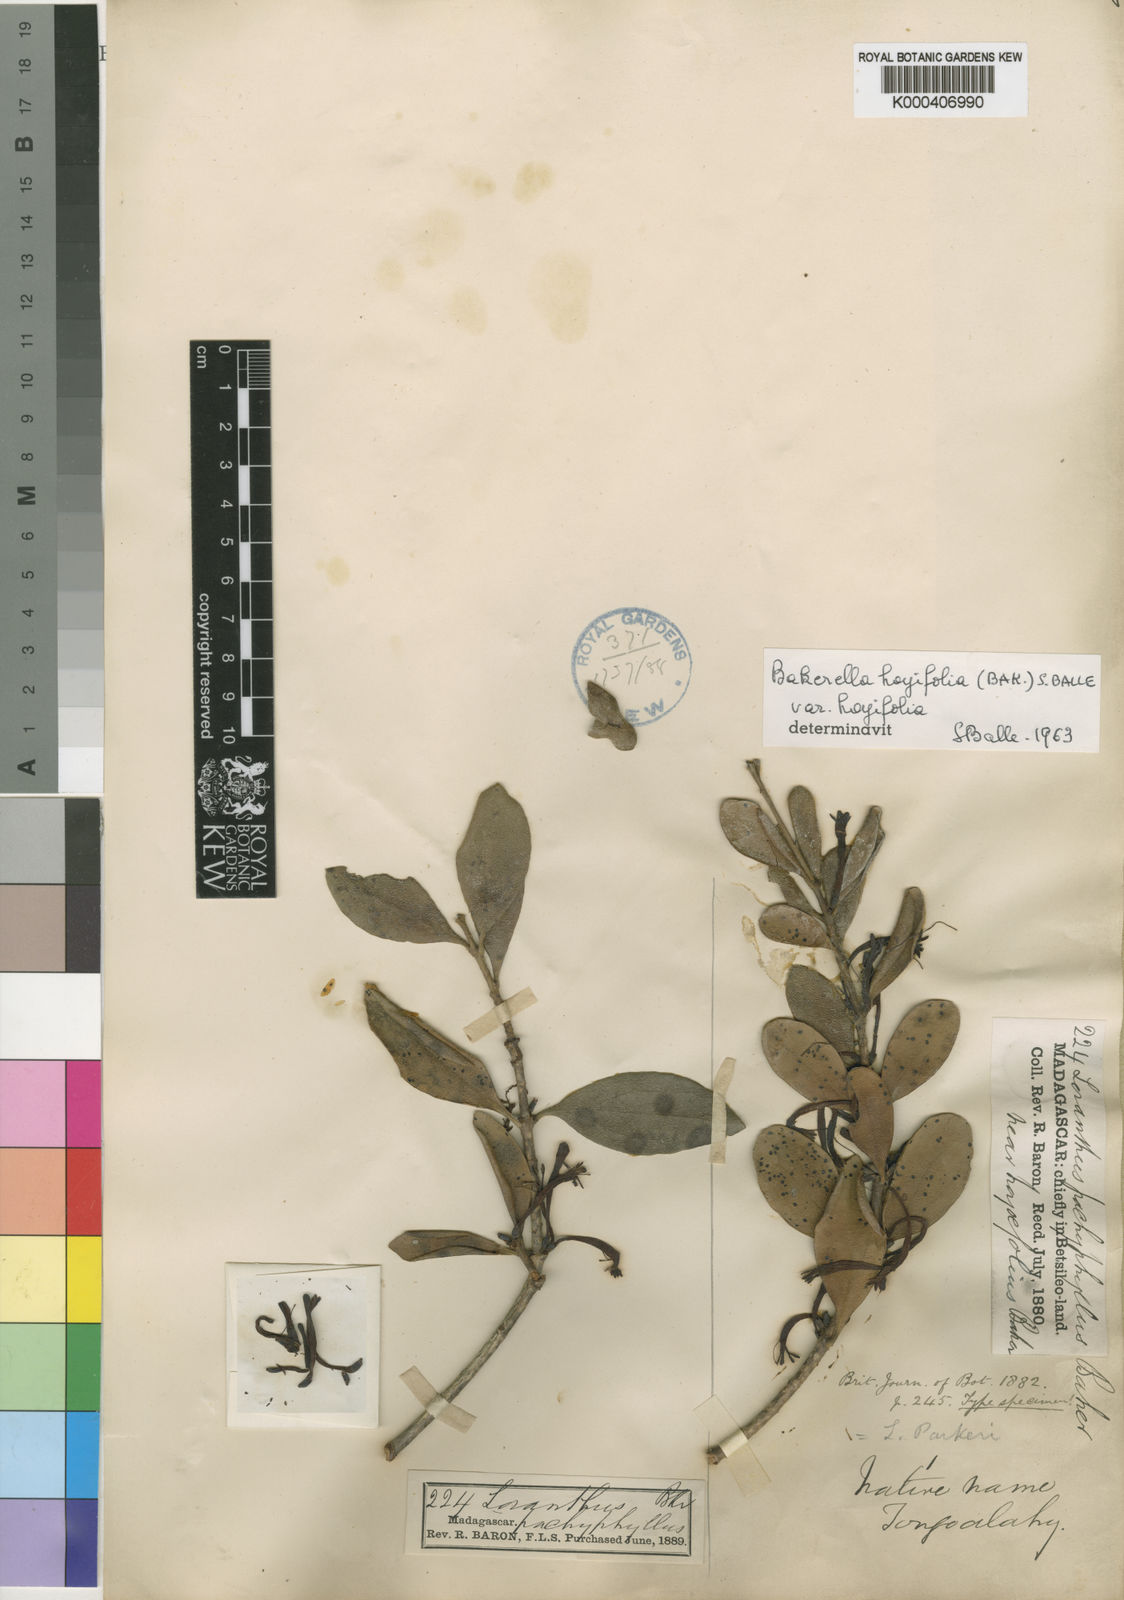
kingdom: Plantae
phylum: Tracheophyta
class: Magnoliopsida
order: Santalales
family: Loranthaceae
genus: Bakerella
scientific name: Bakerella hoyifolia
